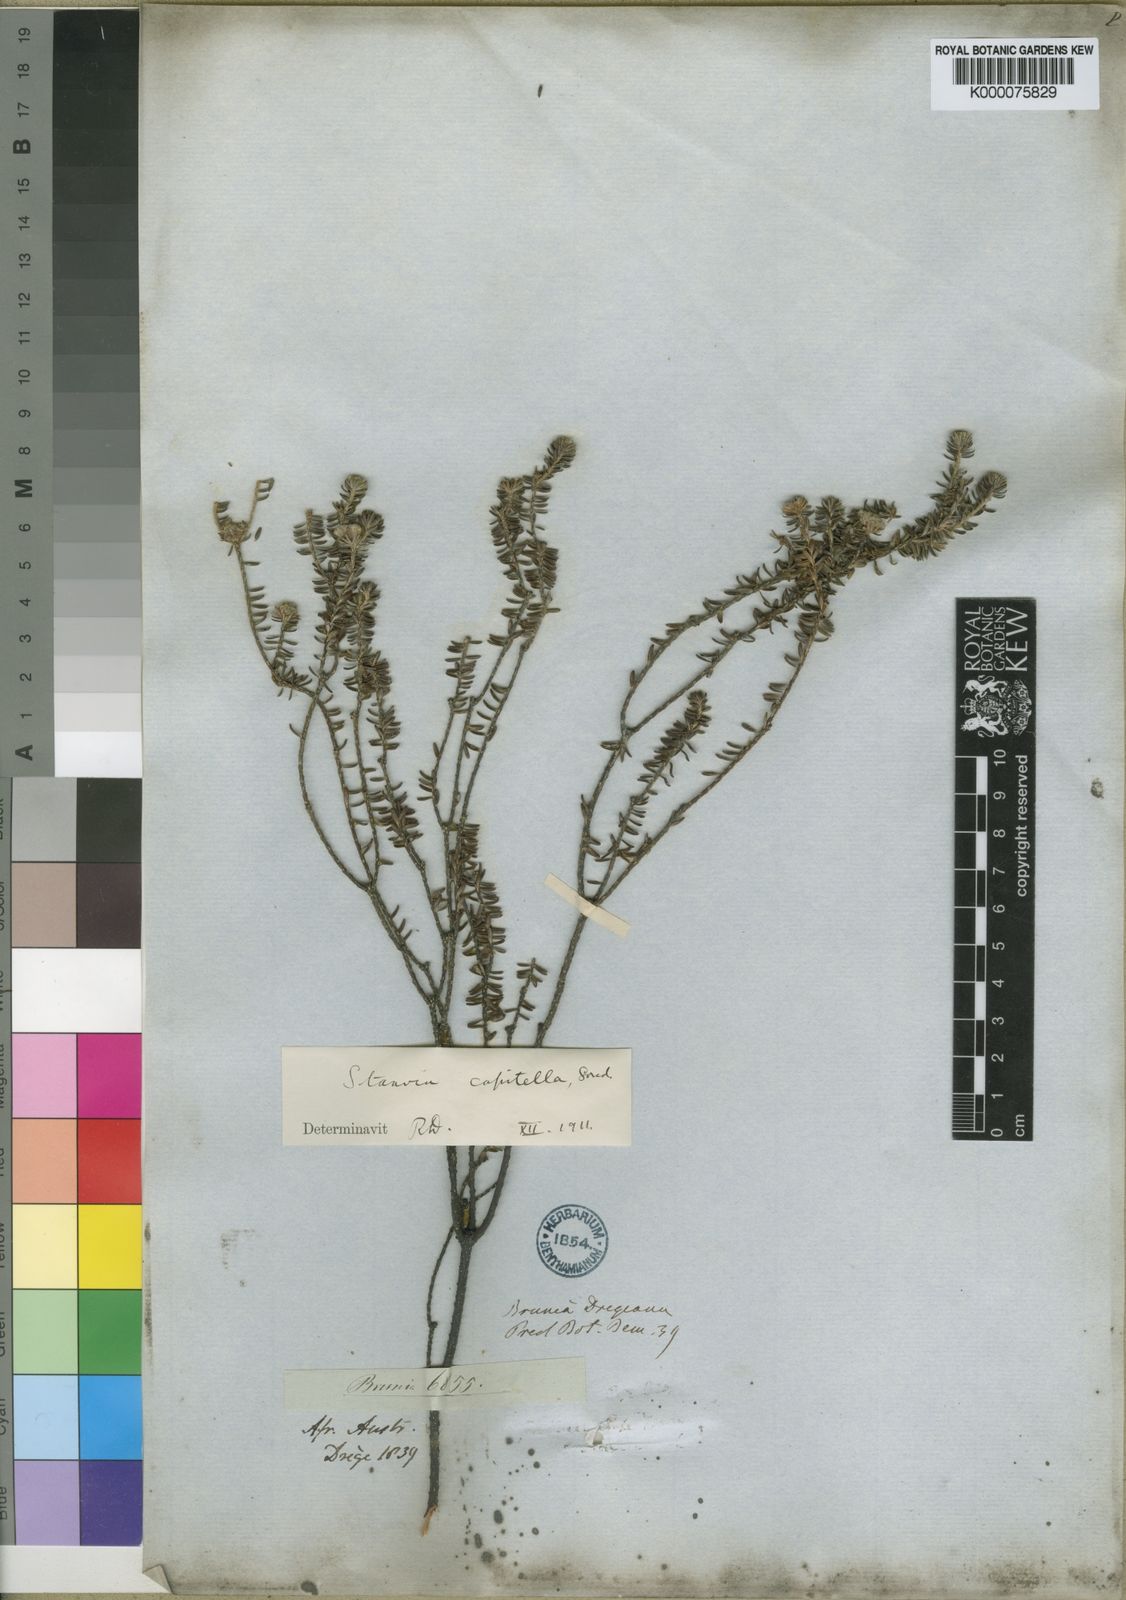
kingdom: Plantae
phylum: Tracheophyta
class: Magnoliopsida
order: Bruniales
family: Bruniaceae
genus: Staavia
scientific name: Staavia capitella
